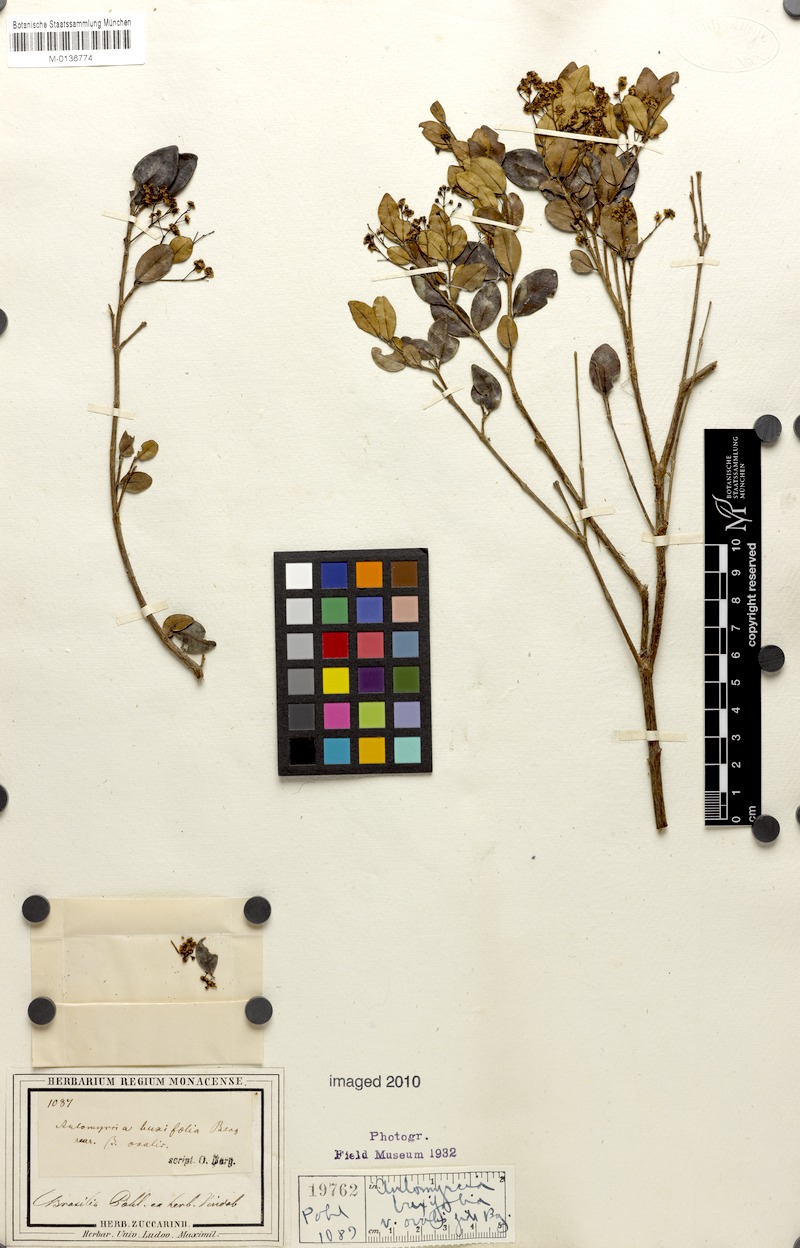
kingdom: Plantae
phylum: Tracheophyta
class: Magnoliopsida
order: Myrtales
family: Myrtaceae
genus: Myrcia
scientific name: Myrcia guianensis
